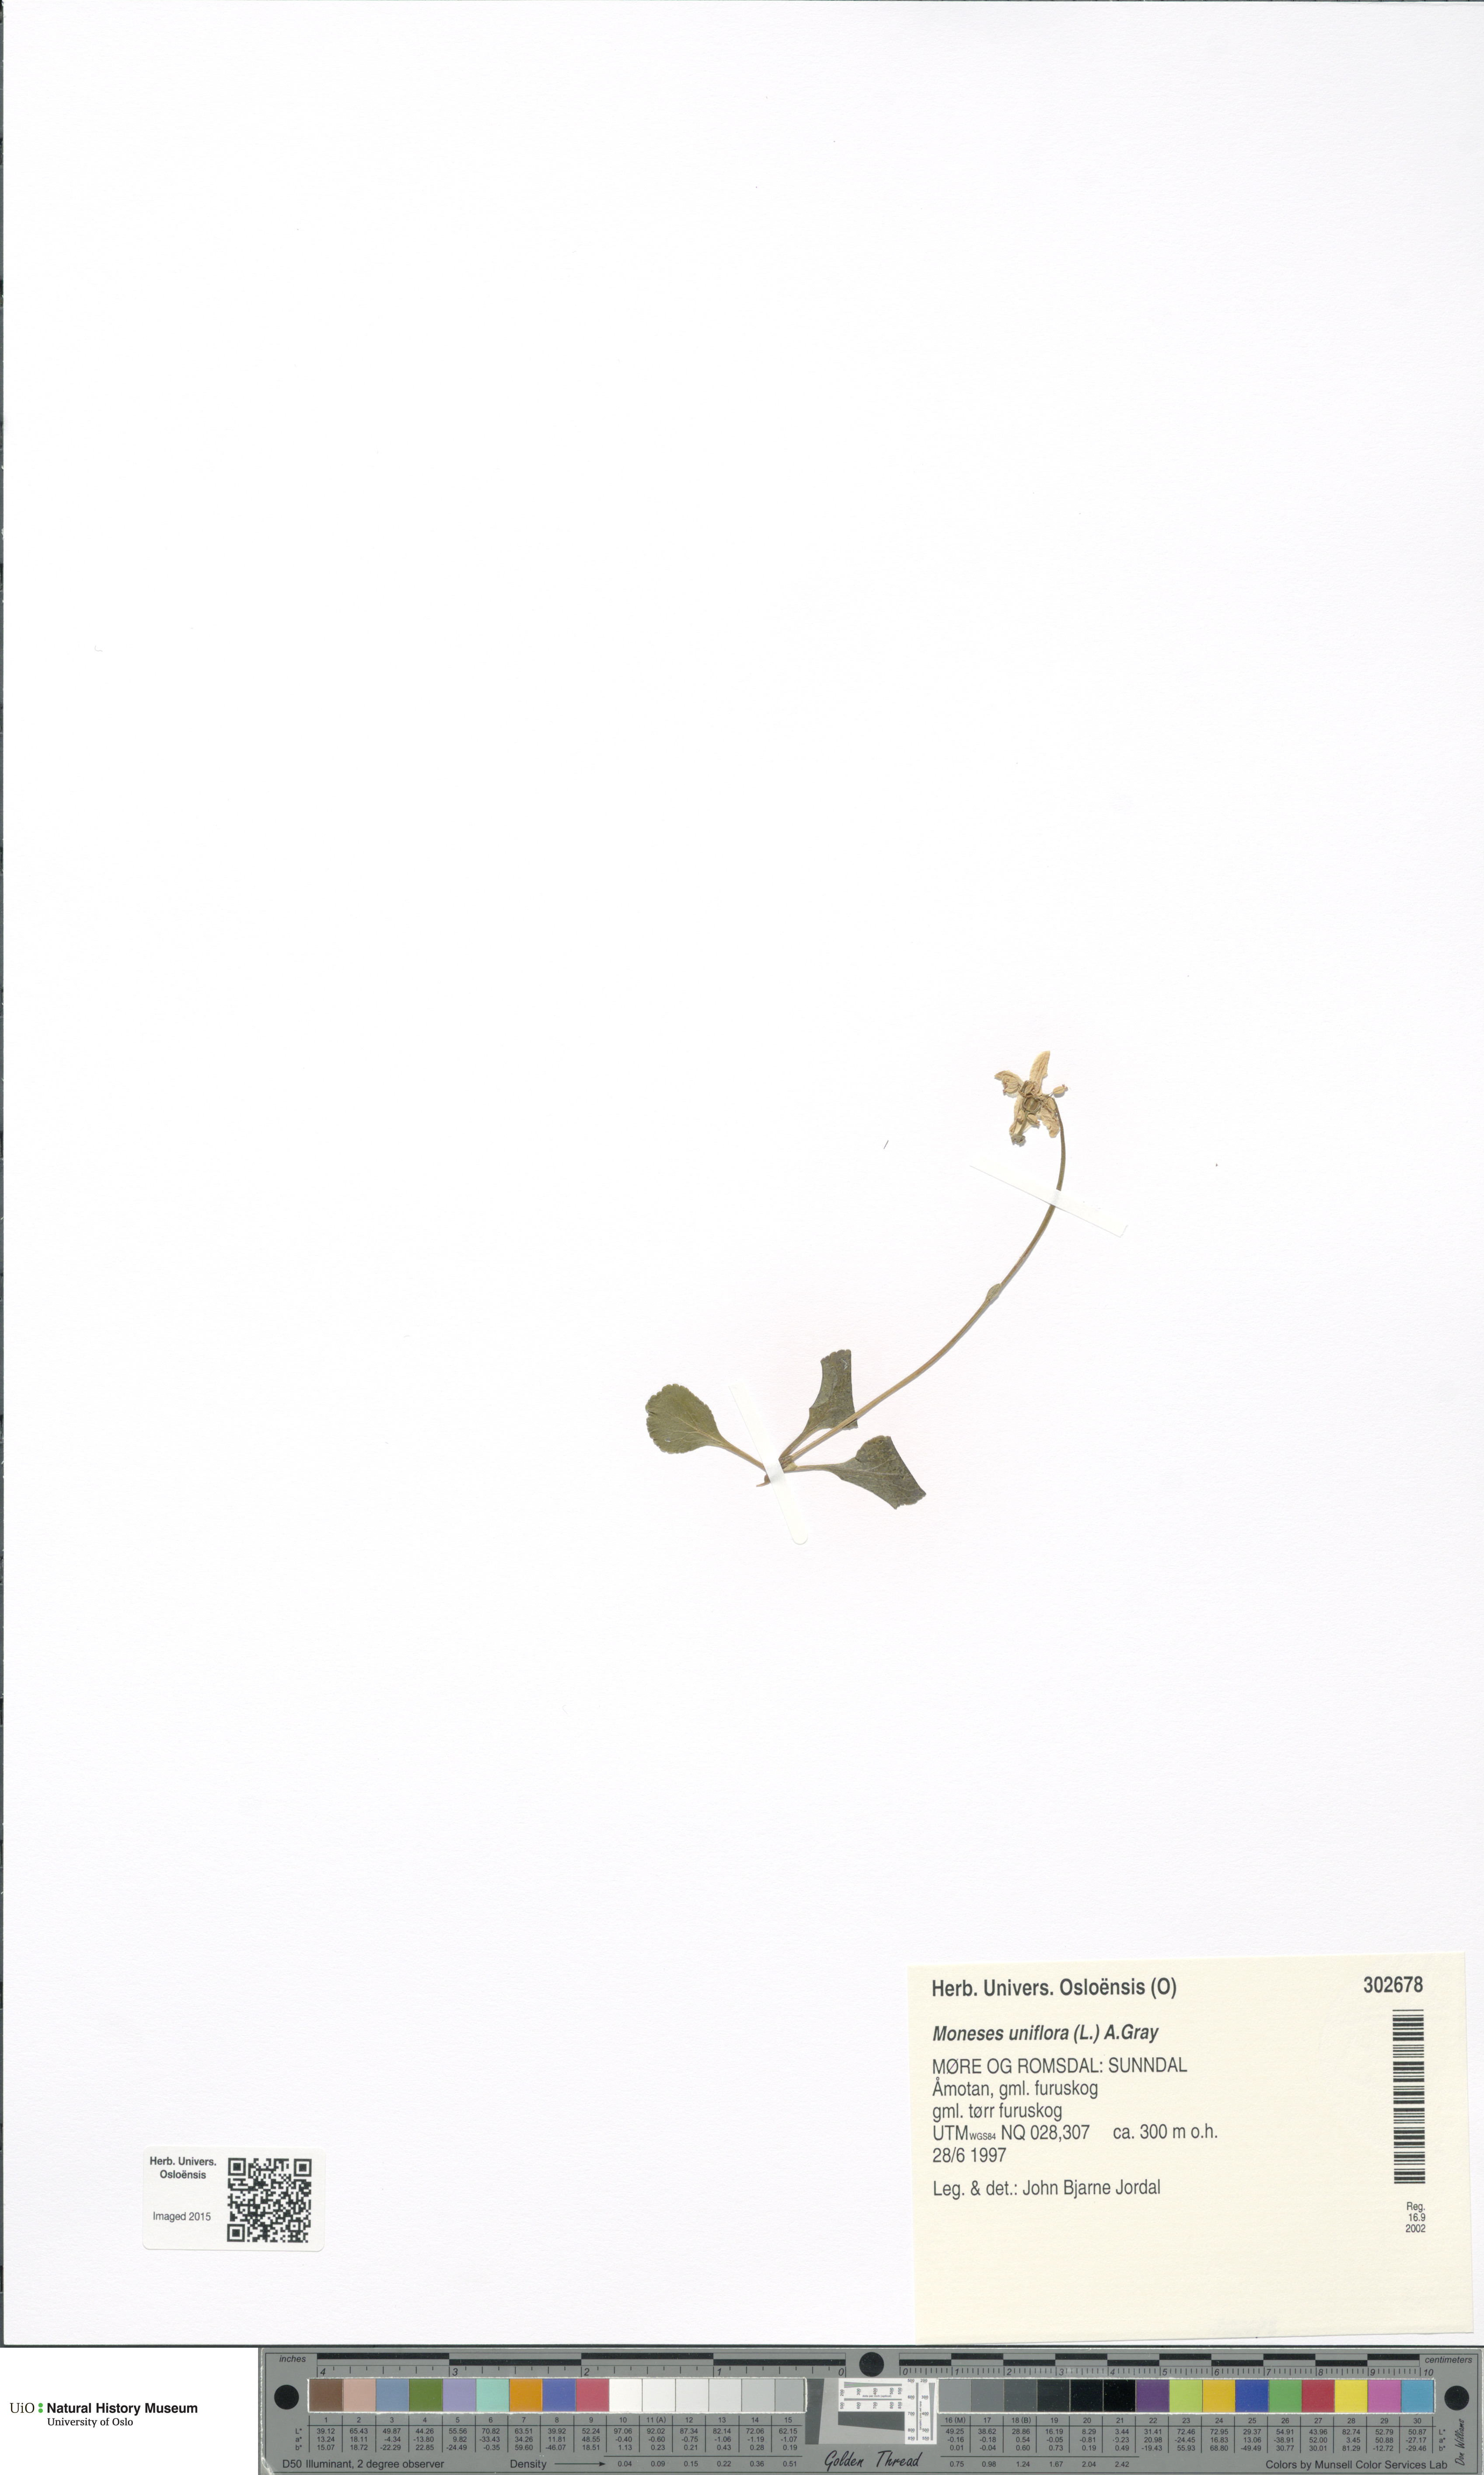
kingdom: Plantae
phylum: Tracheophyta
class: Magnoliopsida
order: Ericales
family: Ericaceae
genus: Moneses
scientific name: Moneses uniflora
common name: One-flowered wintergreen
